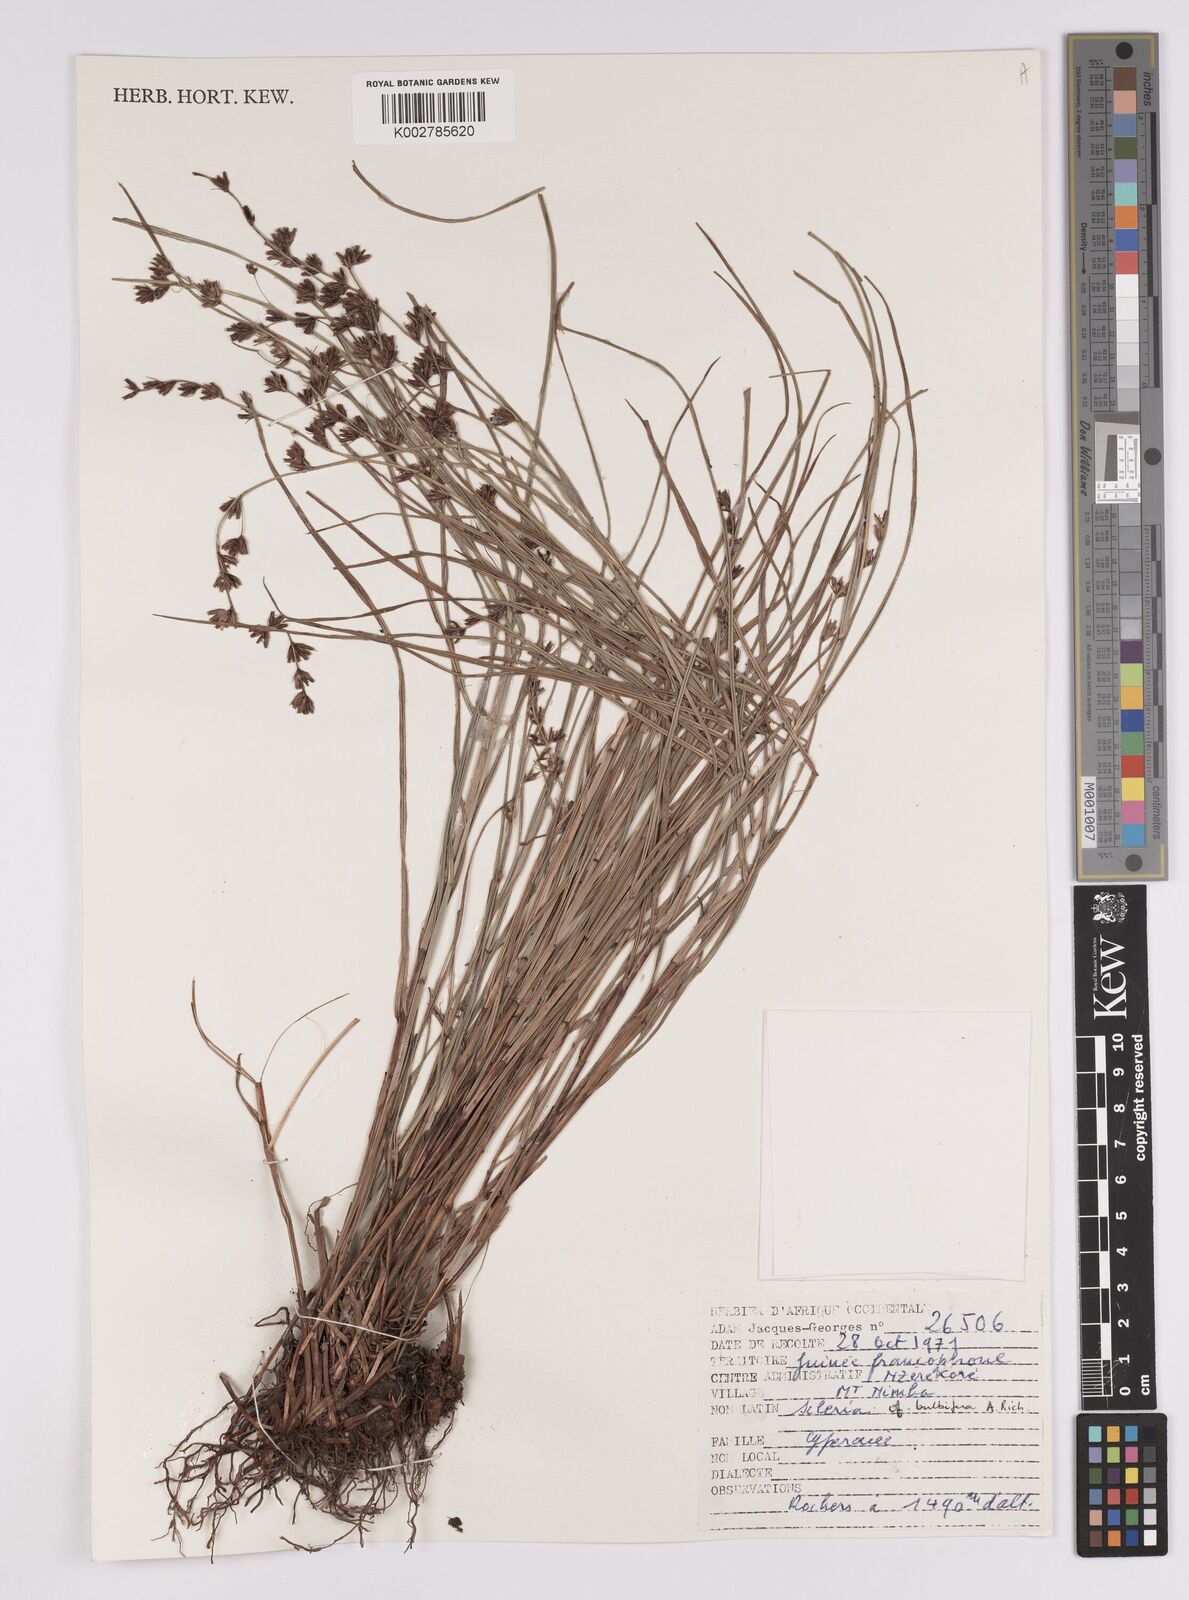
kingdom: Plantae
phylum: Tracheophyta
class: Liliopsida
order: Poales
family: Cyperaceae
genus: Scleria
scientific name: Scleria bulbifera
